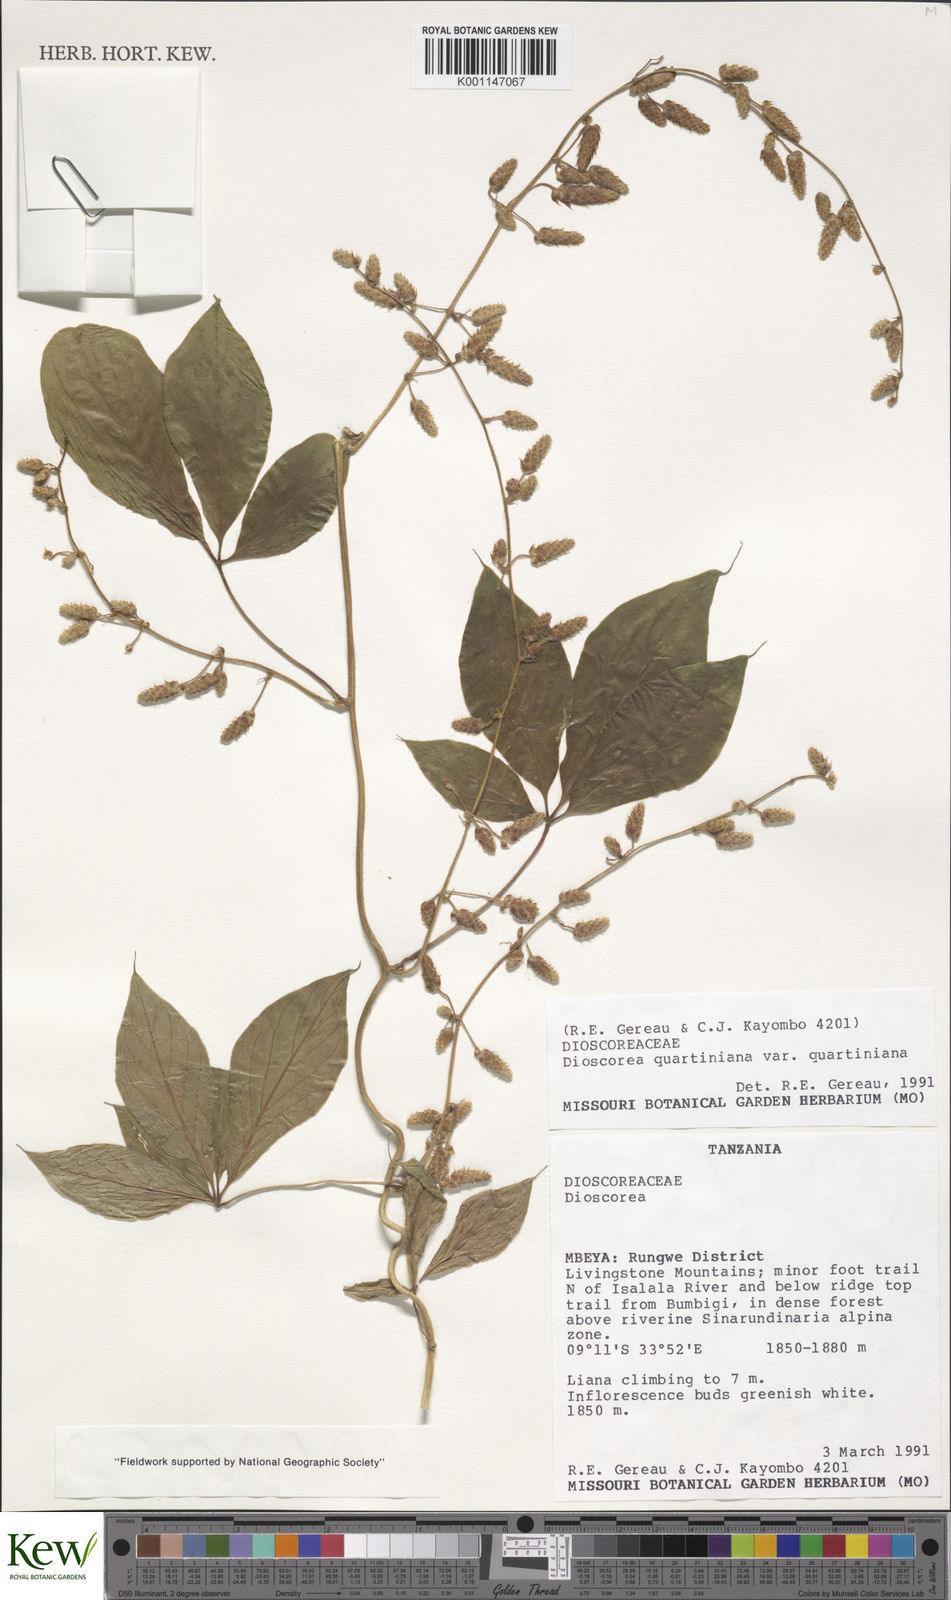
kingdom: Plantae
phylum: Tracheophyta
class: Liliopsida
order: Dioscoreales
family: Dioscoreaceae
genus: Dioscorea
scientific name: Dioscorea quartiniana
